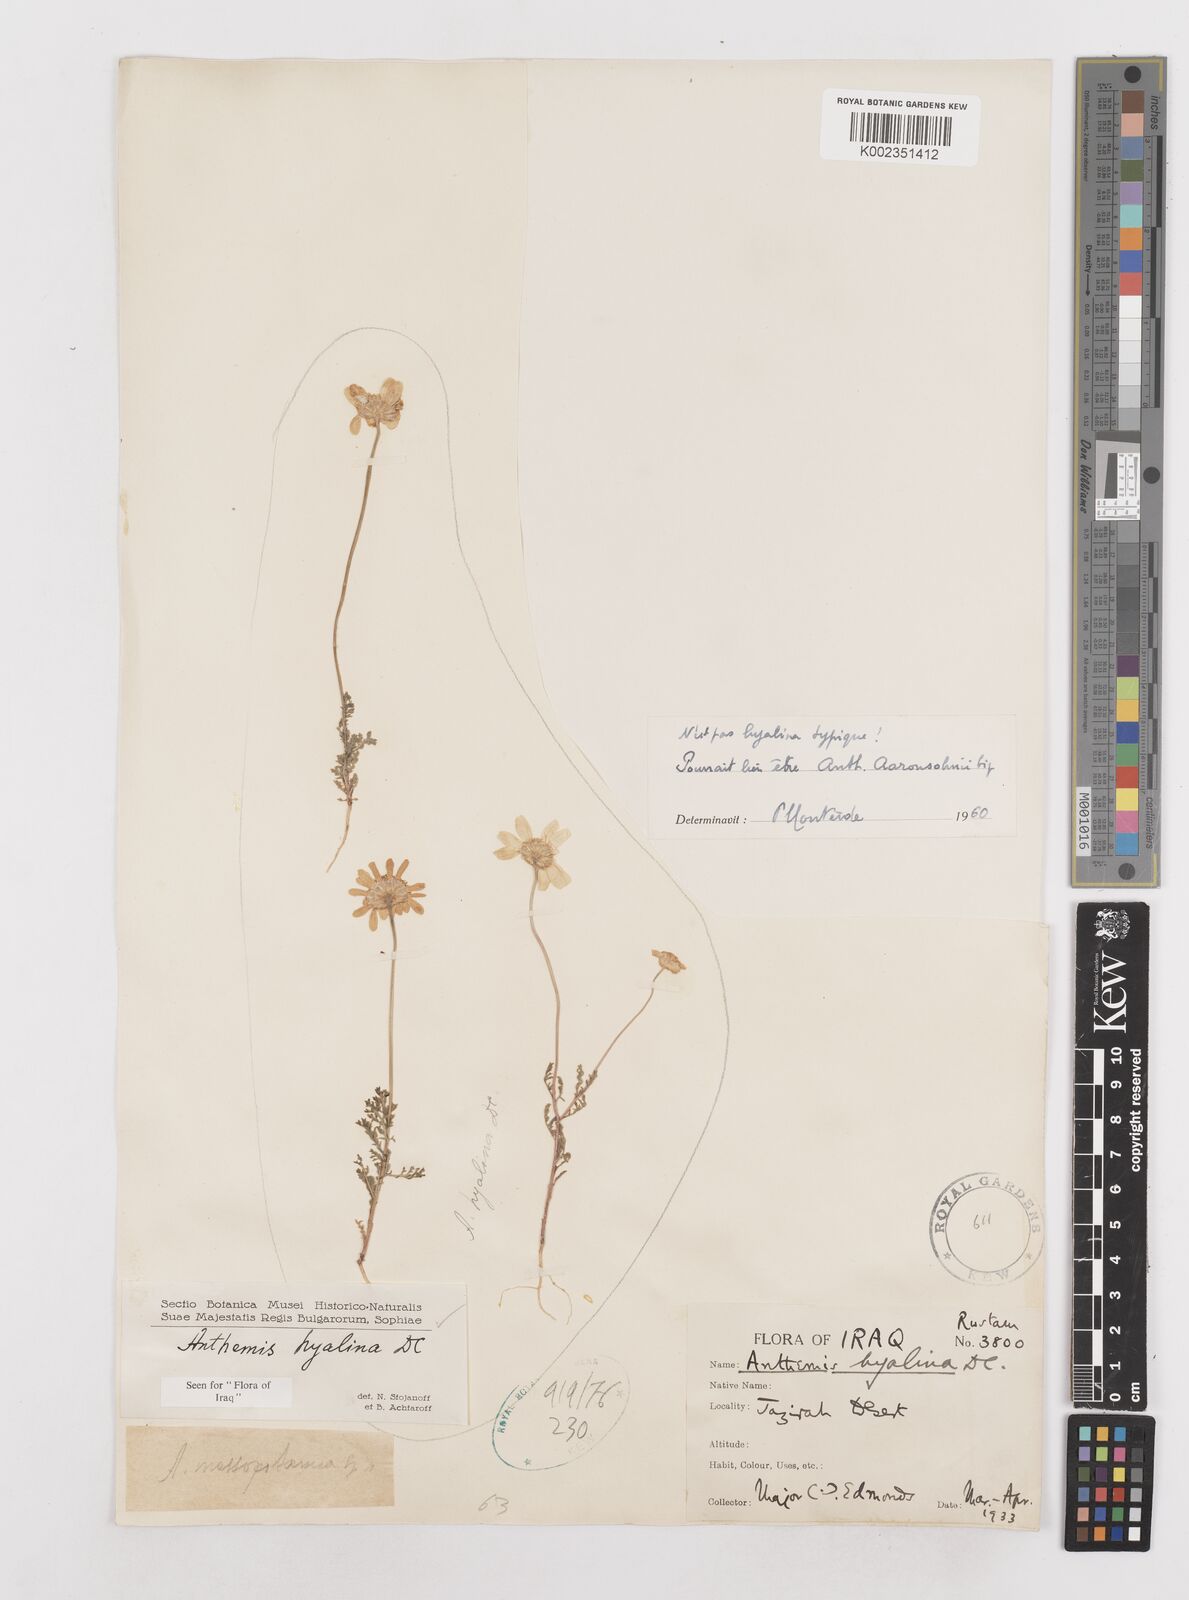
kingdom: Plantae
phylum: Tracheophyta
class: Magnoliopsida
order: Asterales
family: Asteraceae
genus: Anthemis
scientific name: Anthemis hyalina
